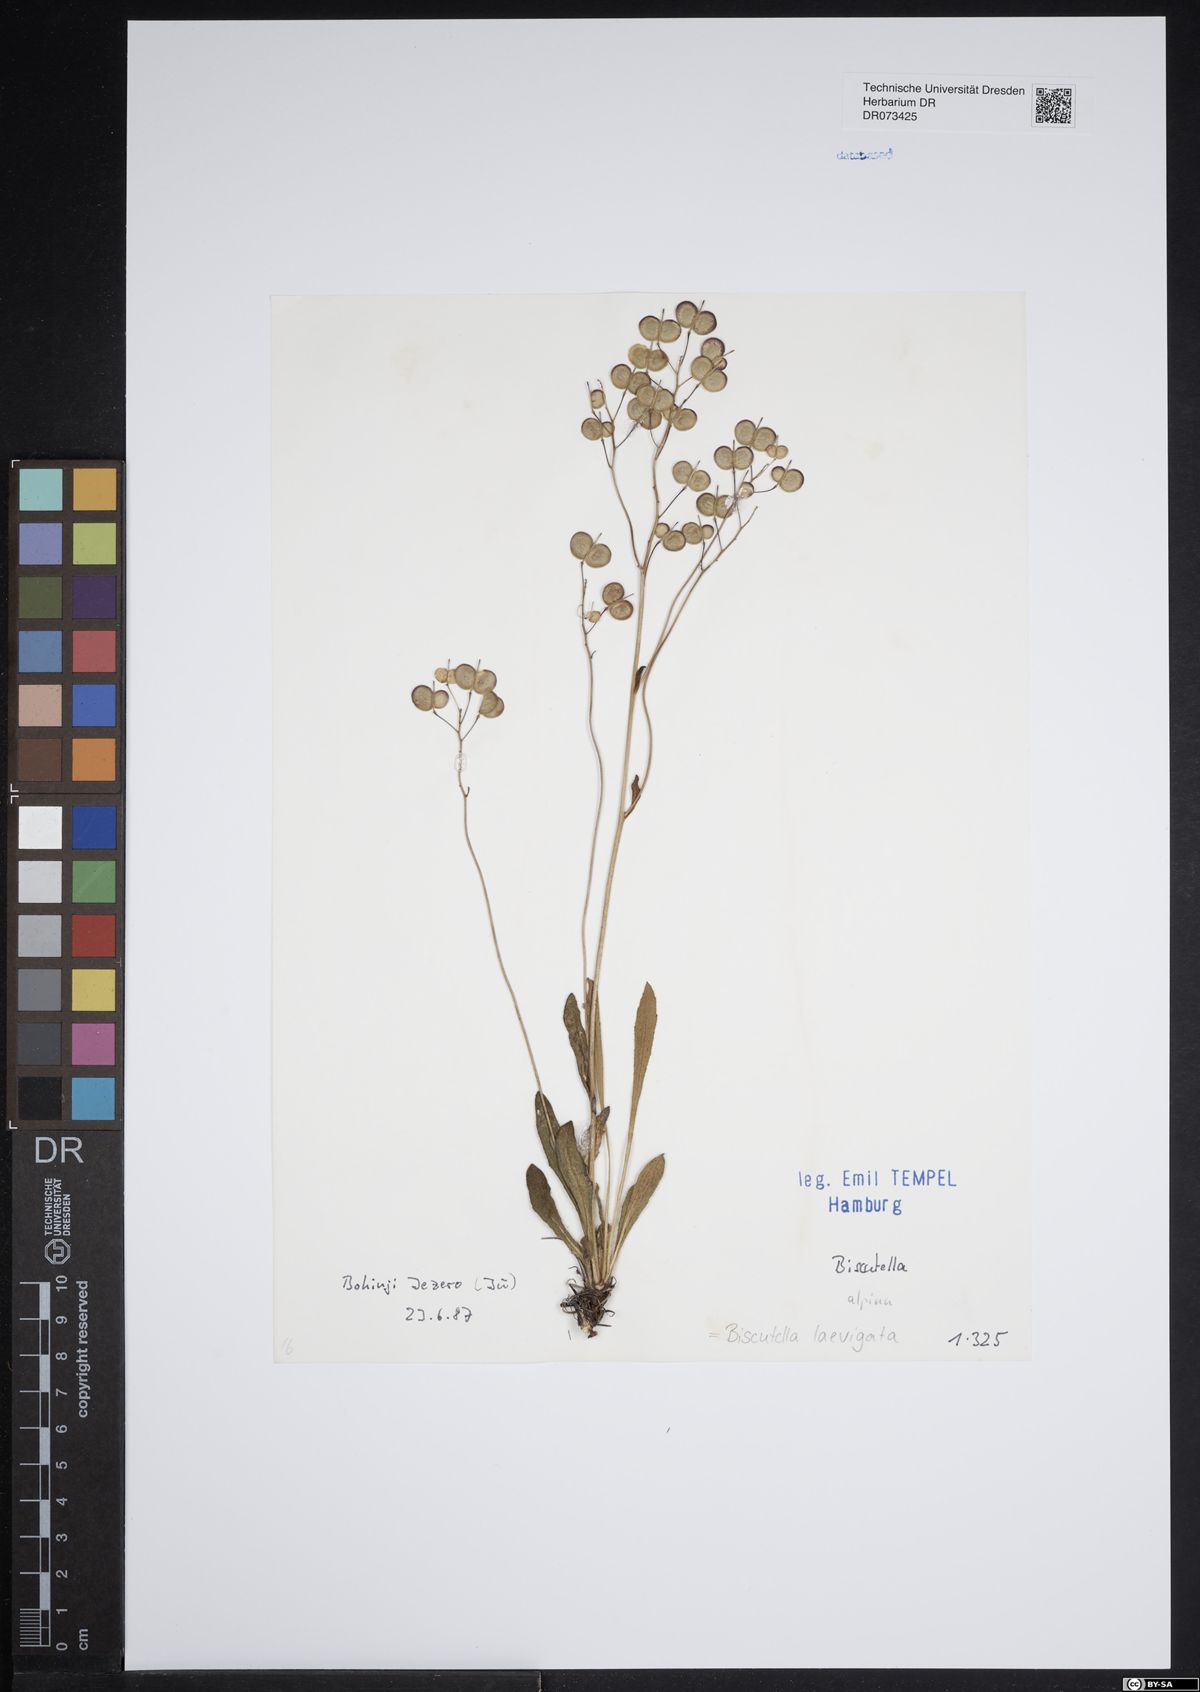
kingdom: Plantae
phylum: Tracheophyta
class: Magnoliopsida
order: Brassicales
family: Brassicaceae
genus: Biscutella
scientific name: Biscutella laevigata
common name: Buckler mustard
